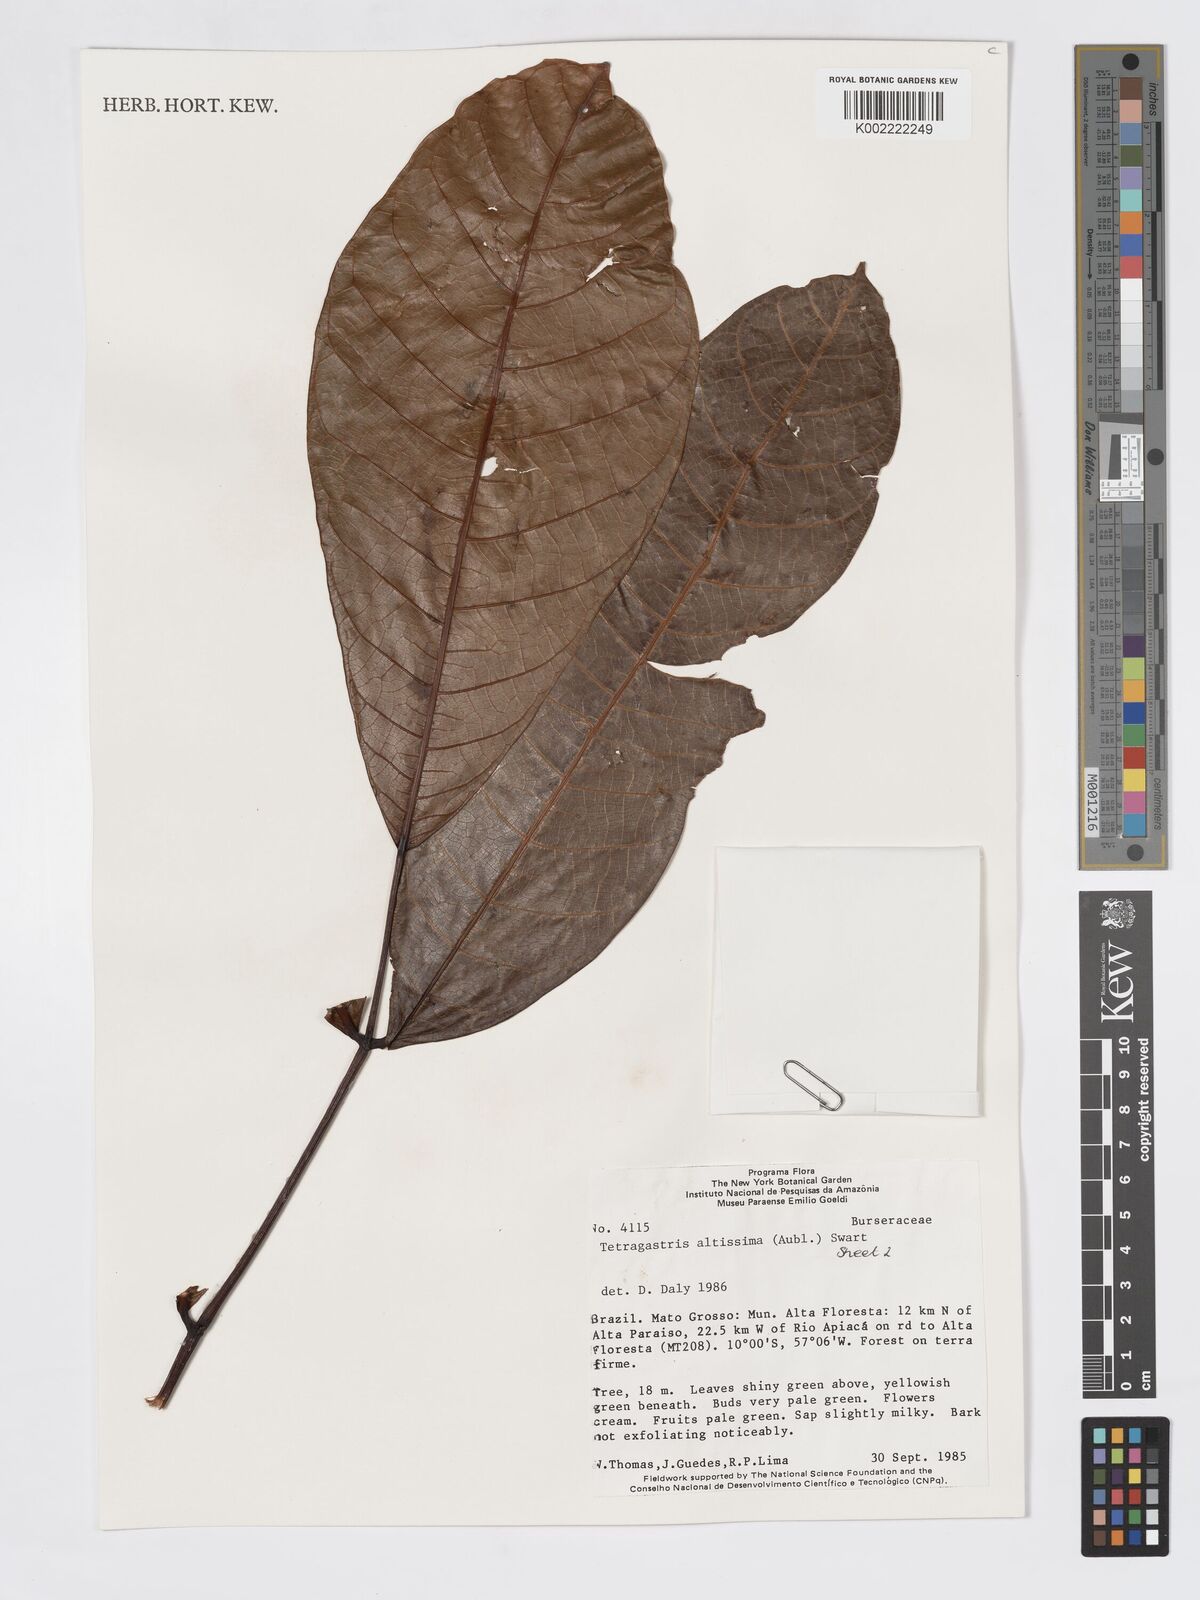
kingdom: Plantae
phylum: Tracheophyta
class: Magnoliopsida
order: Sapindales
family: Burseraceae
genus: Tetragastris
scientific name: Tetragastris altissima
